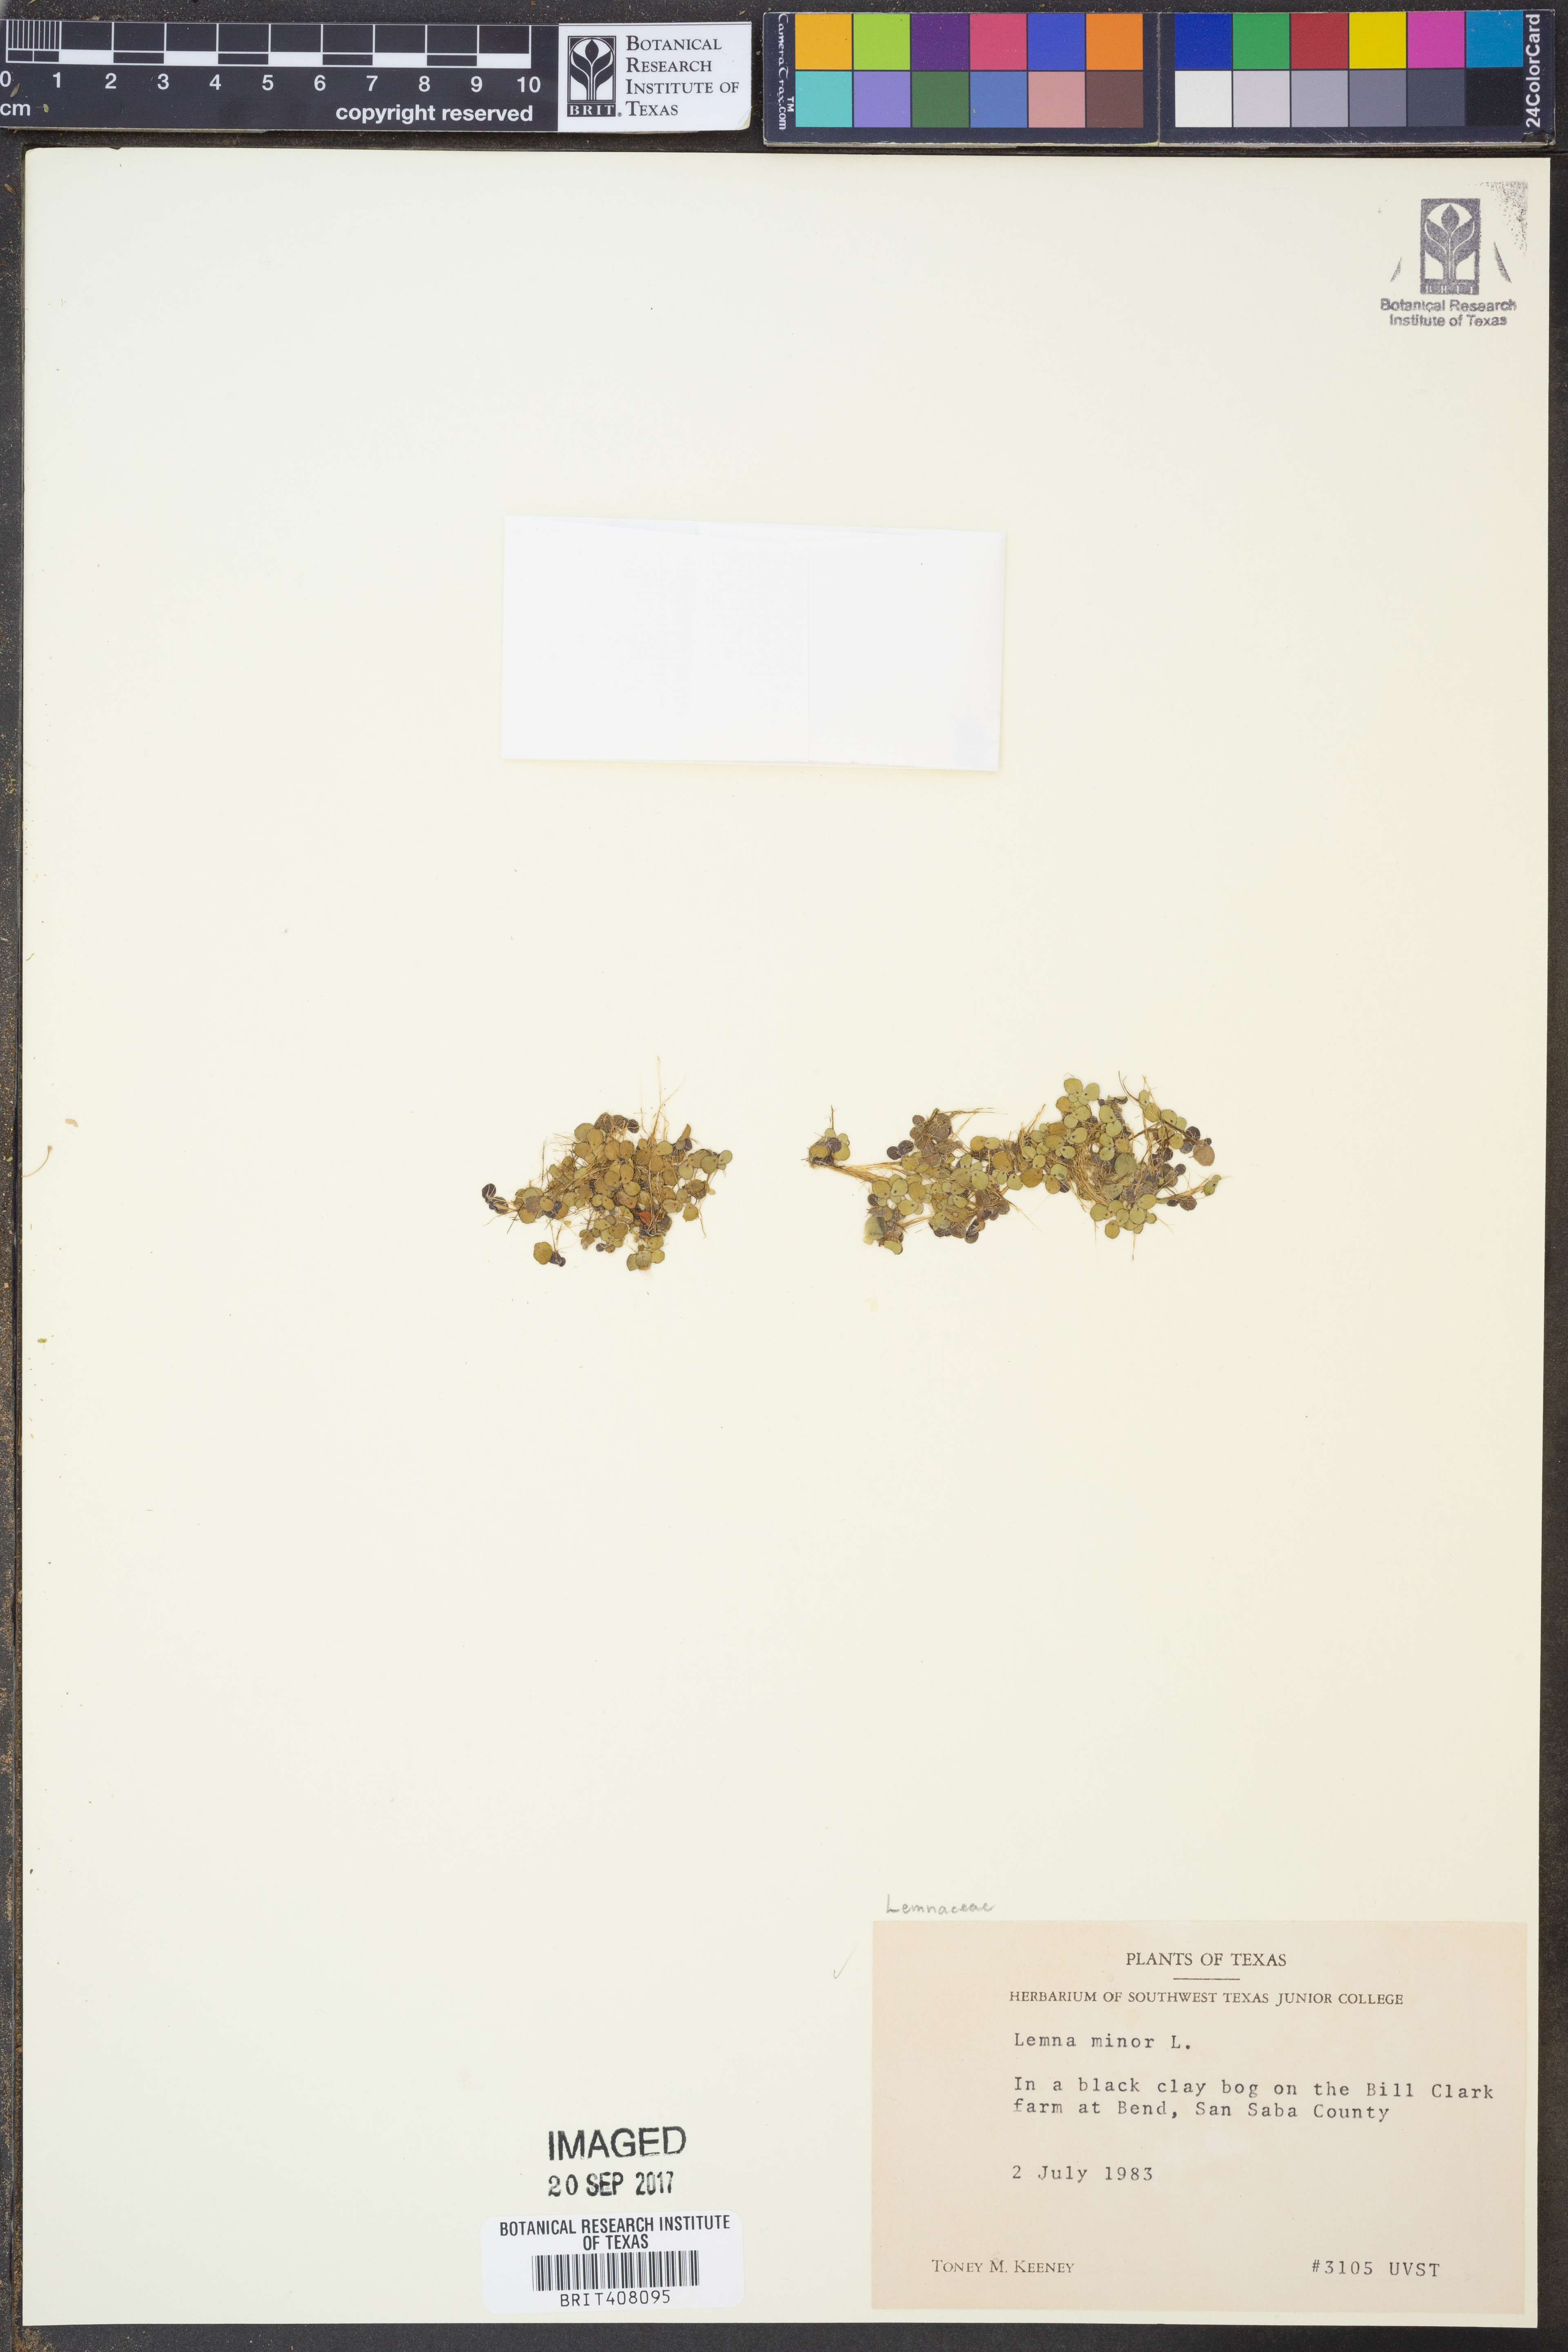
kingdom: Plantae
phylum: Tracheophyta
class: Liliopsida
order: Alismatales
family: Araceae
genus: Lemna
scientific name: Lemna minor
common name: Common duckweed
